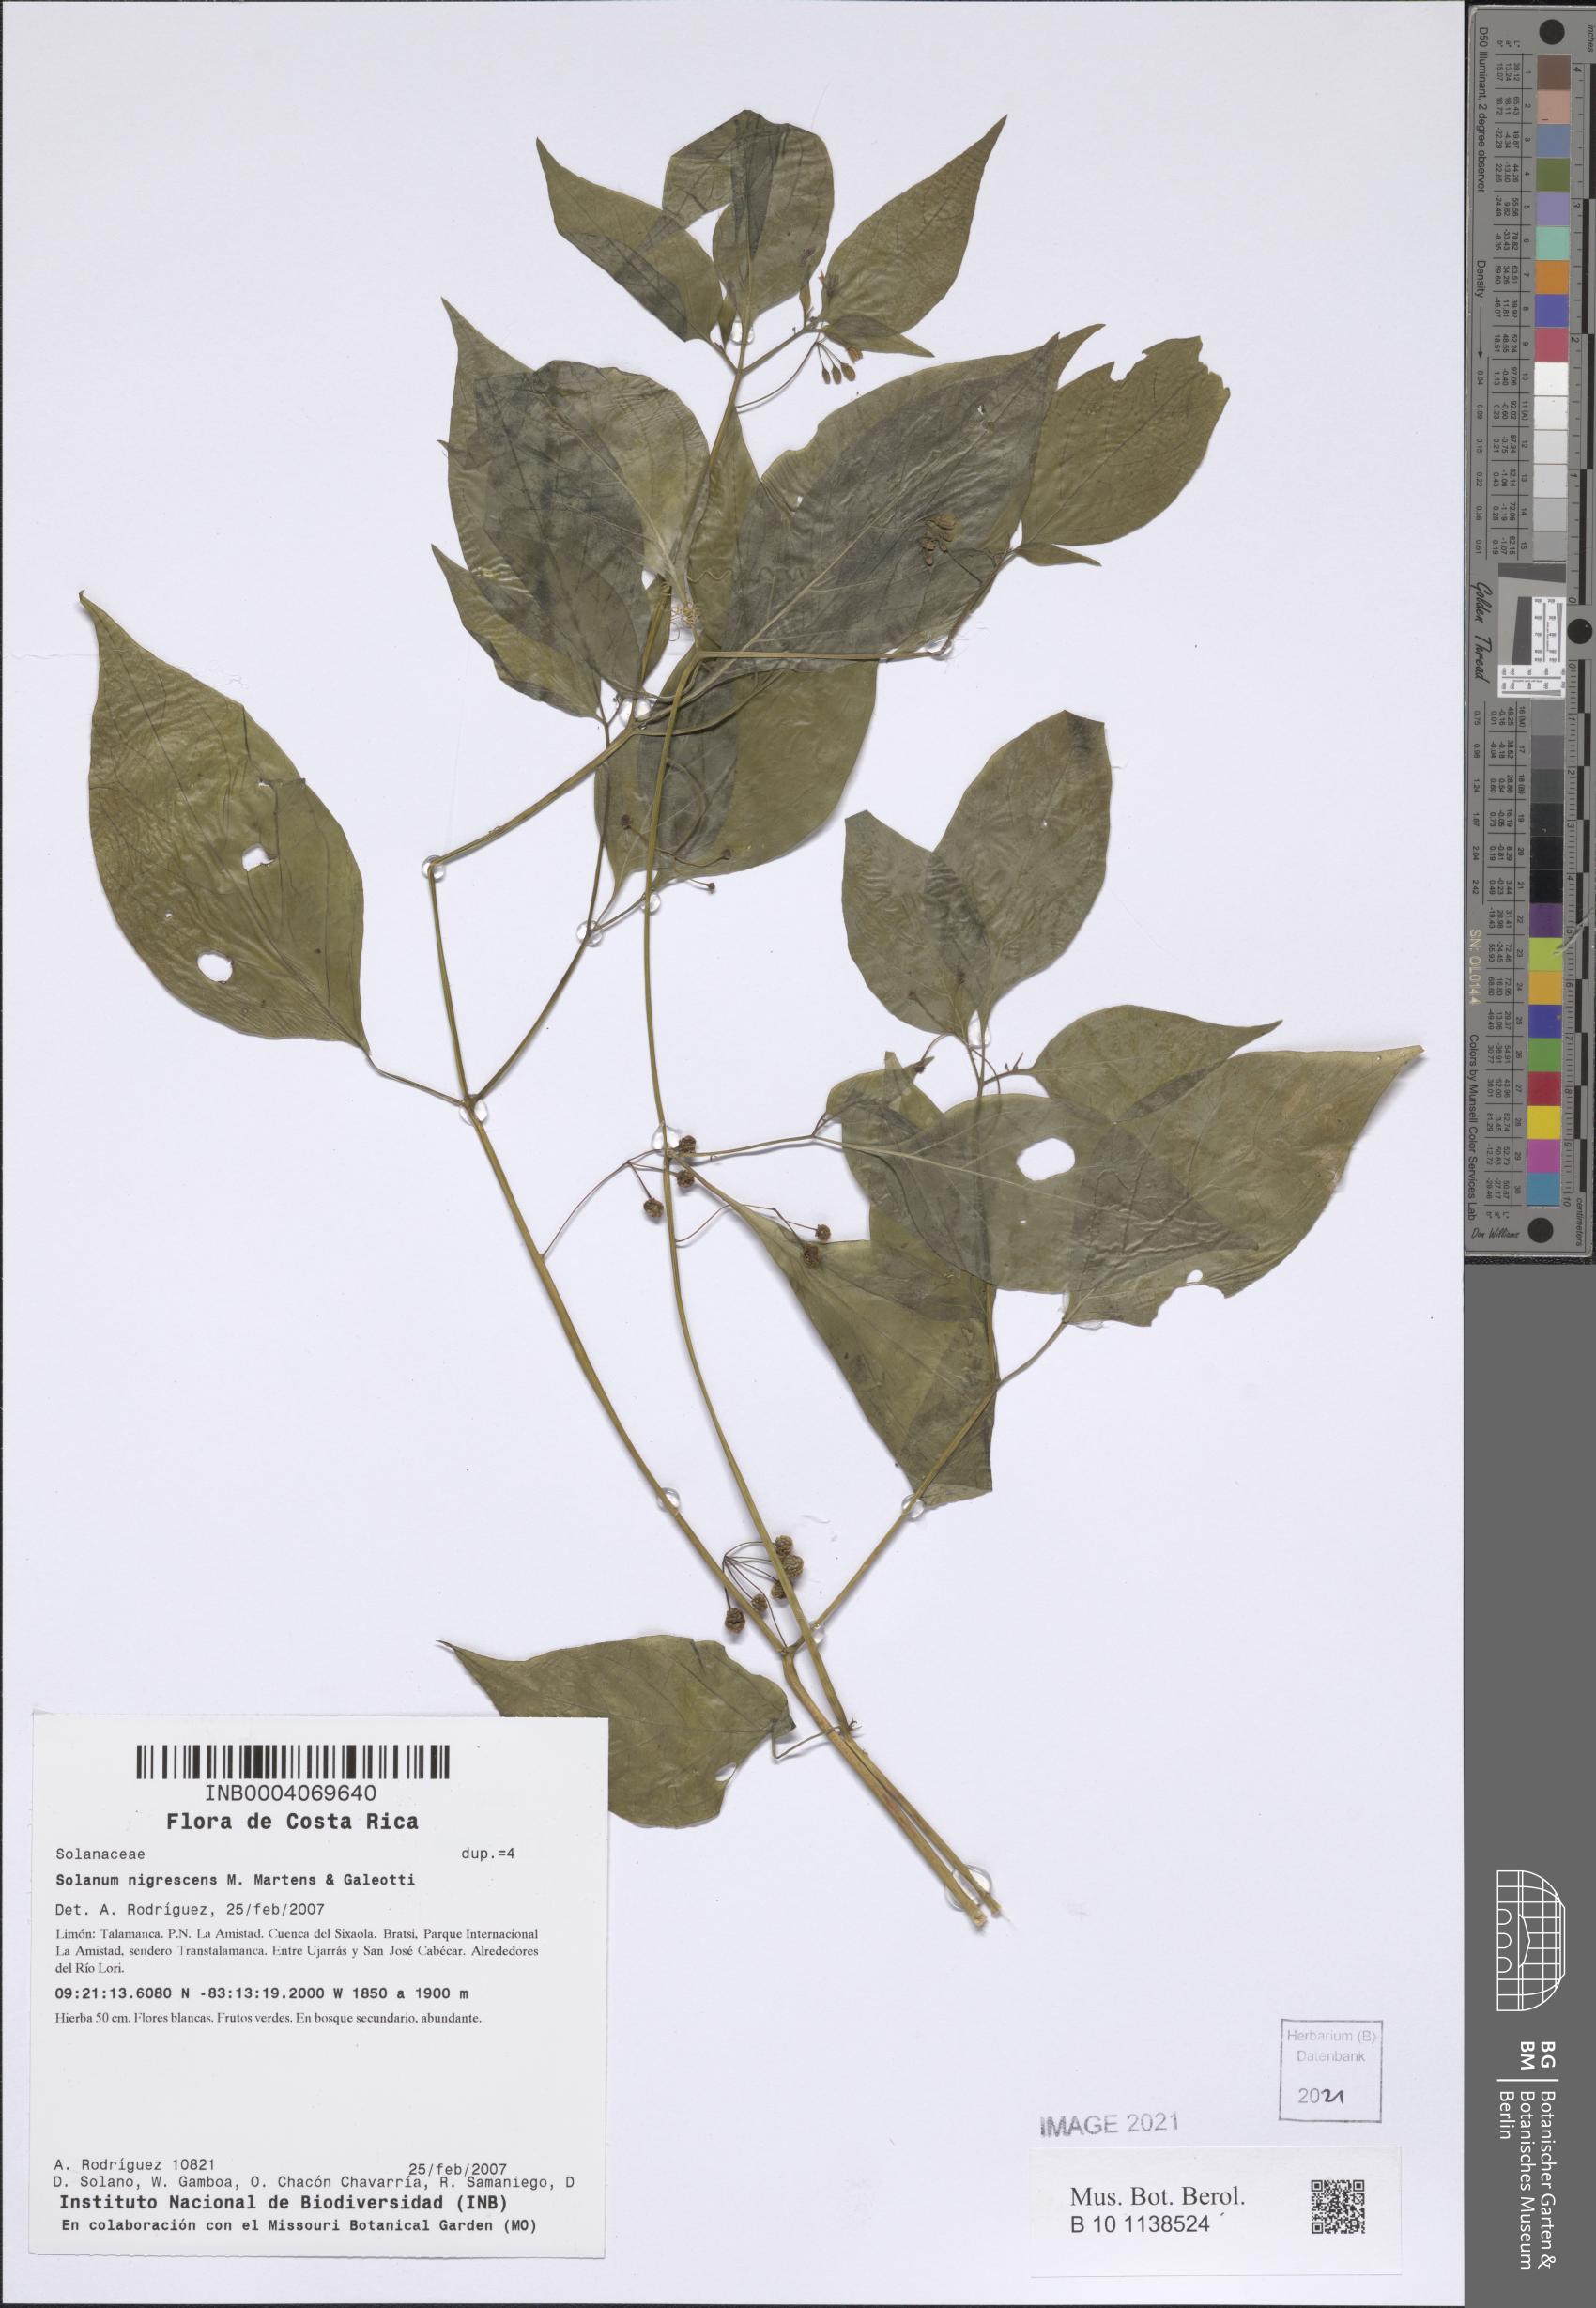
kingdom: Plantae
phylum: Tracheophyta
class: Magnoliopsida
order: Solanales
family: Solanaceae
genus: Solanum
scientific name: Solanum nigrescens
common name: Divine nightshade
